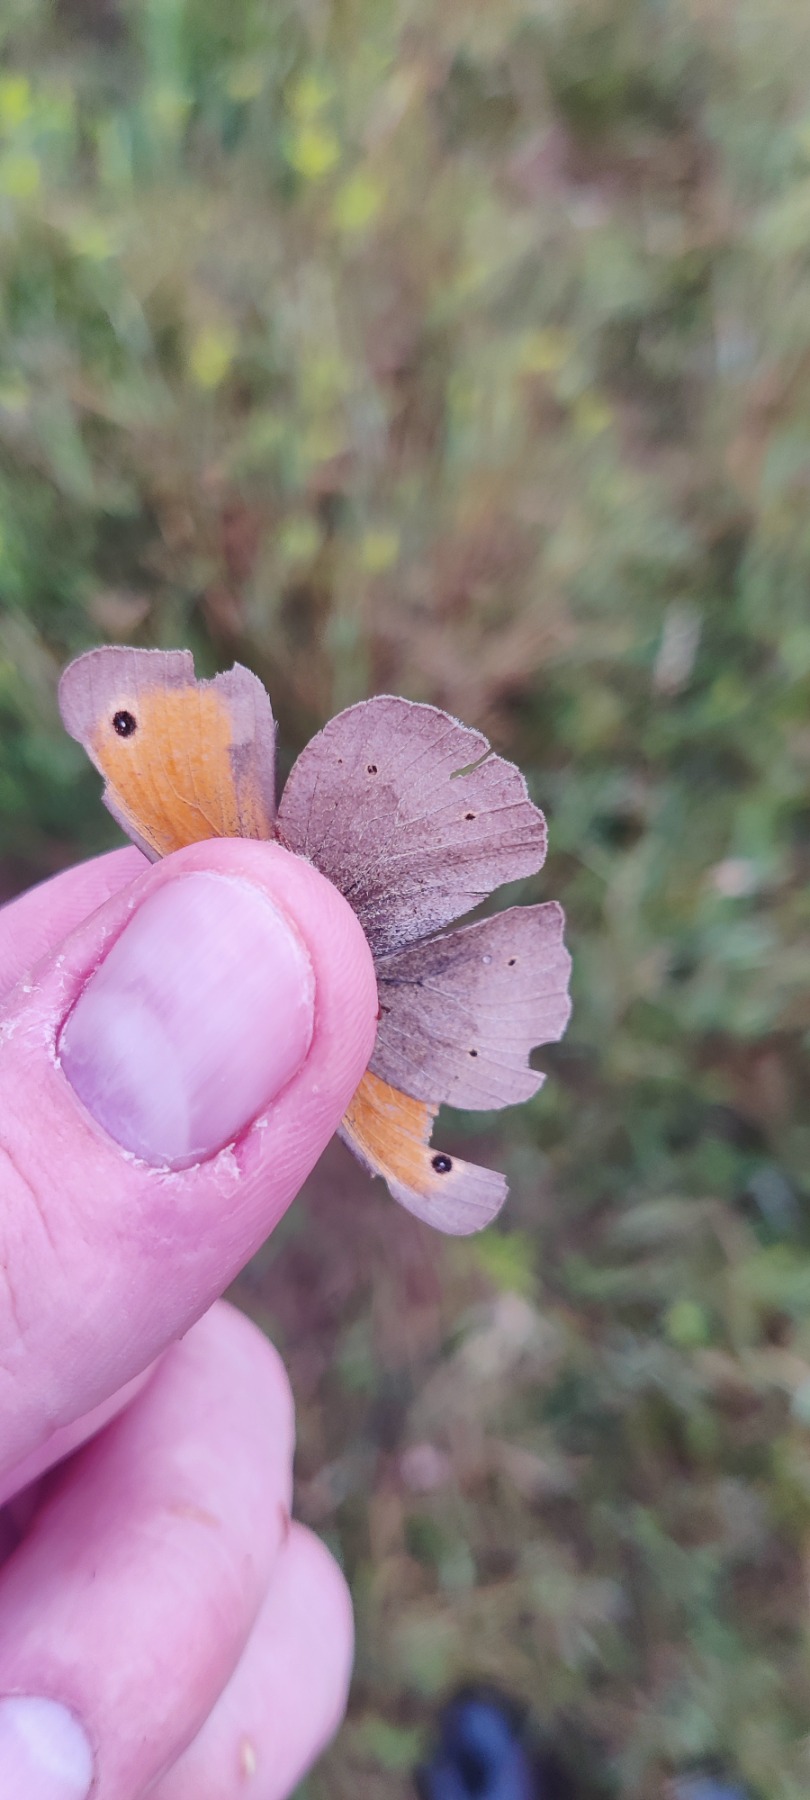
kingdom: Animalia
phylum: Arthropoda
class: Insecta
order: Lepidoptera
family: Nymphalidae
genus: Maniola
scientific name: Maniola jurtina
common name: Græsrandøje
